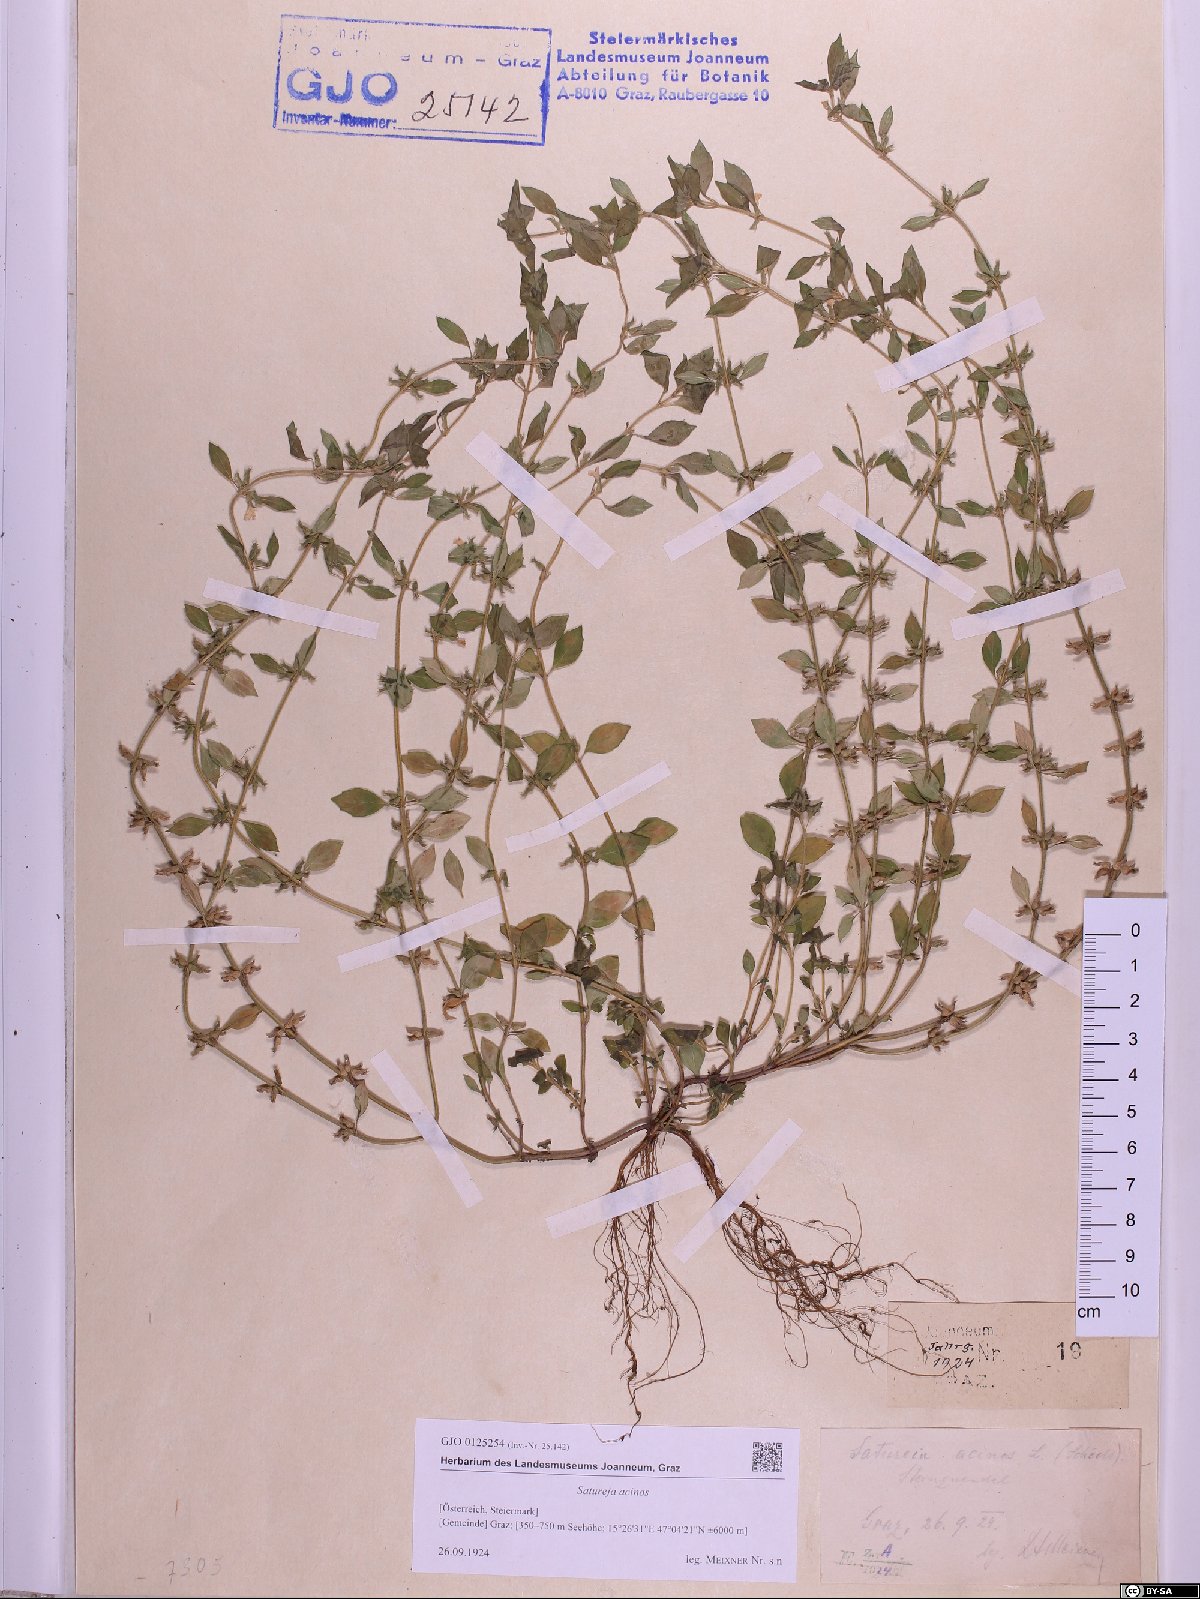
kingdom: Plantae
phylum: Tracheophyta
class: Magnoliopsida
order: Lamiales
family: Lamiaceae
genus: Clinopodium
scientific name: Clinopodium acinos
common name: Basil thyme
